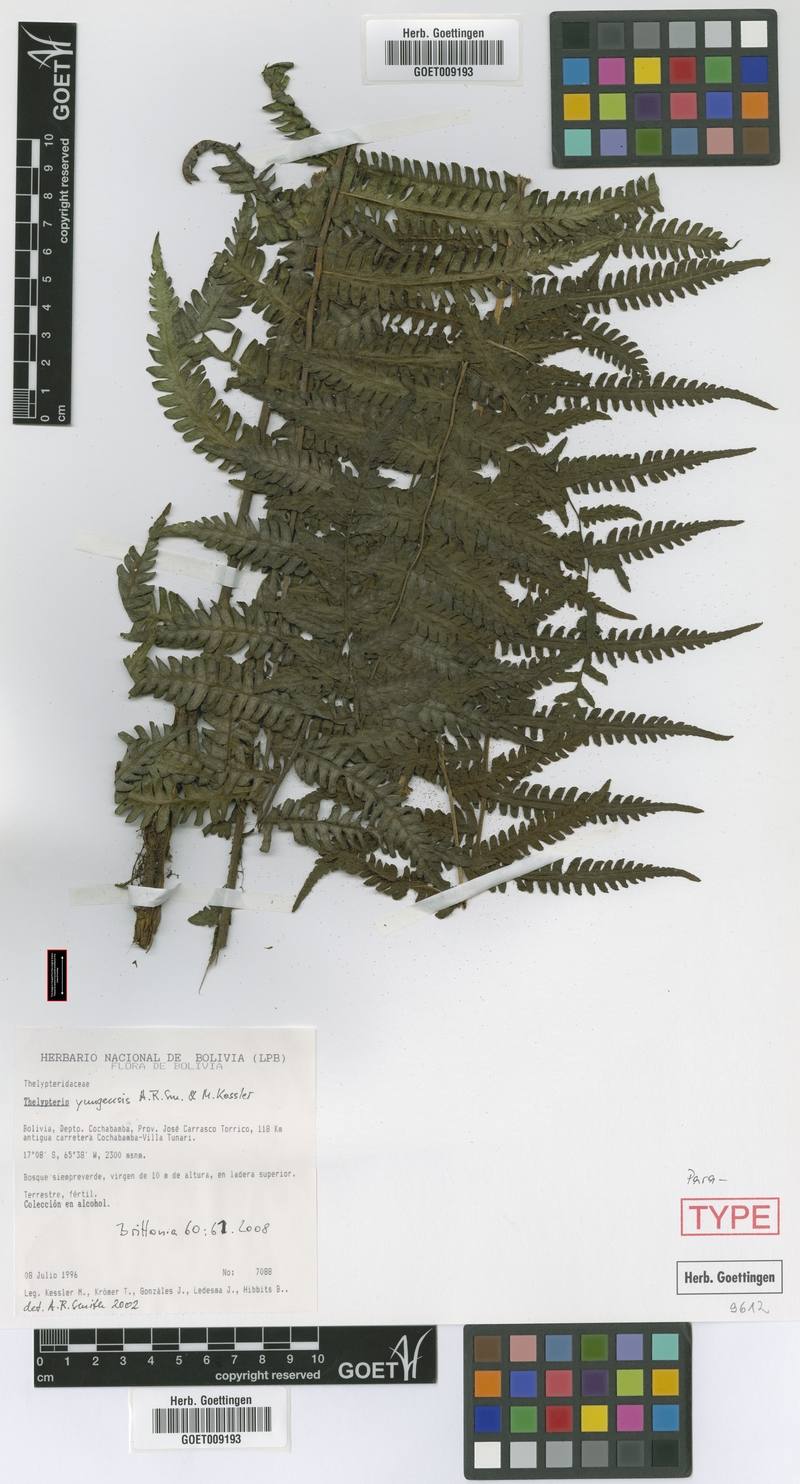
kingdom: Plantae
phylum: Tracheophyta
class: Polypodiopsida
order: Polypodiales
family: Thelypteridaceae
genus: Amauropelta
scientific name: Amauropelta yungensis
